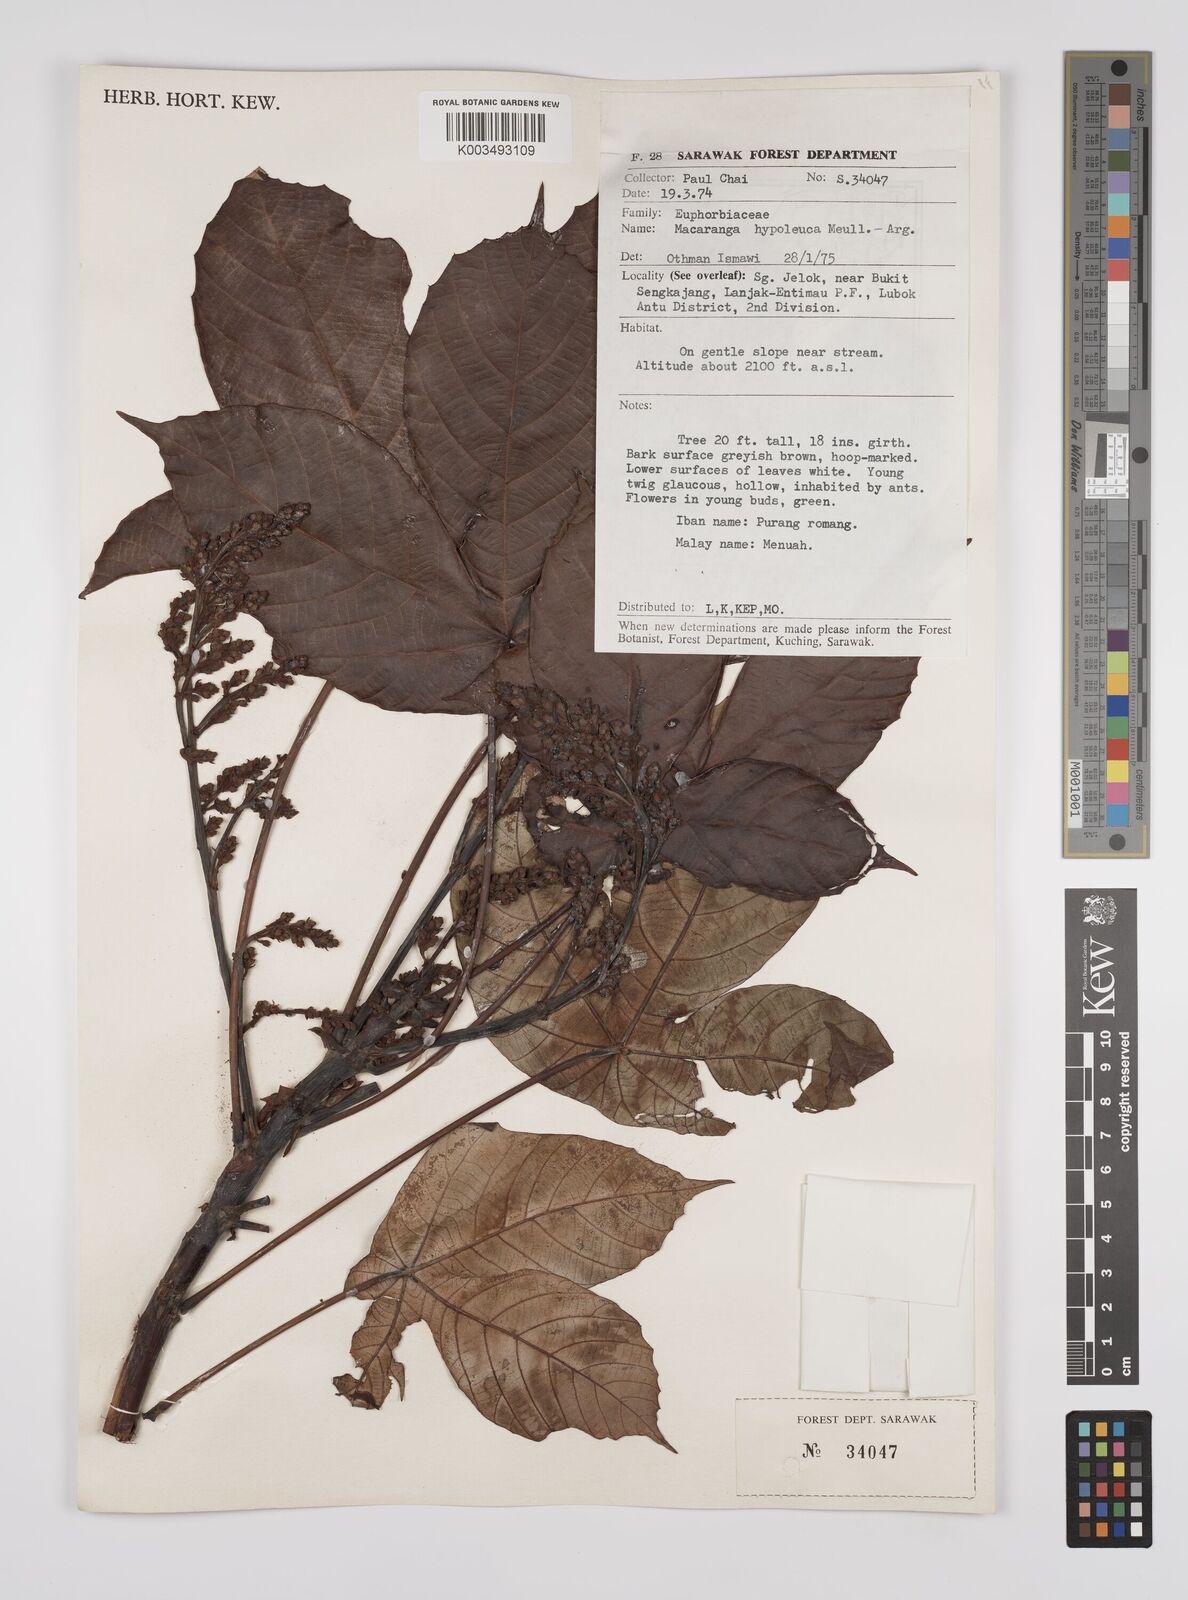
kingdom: Plantae
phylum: Tracheophyta
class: Magnoliopsida
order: Malpighiales
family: Euphorbiaceae
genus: Macaranga
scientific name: Macaranga hypoleuca
